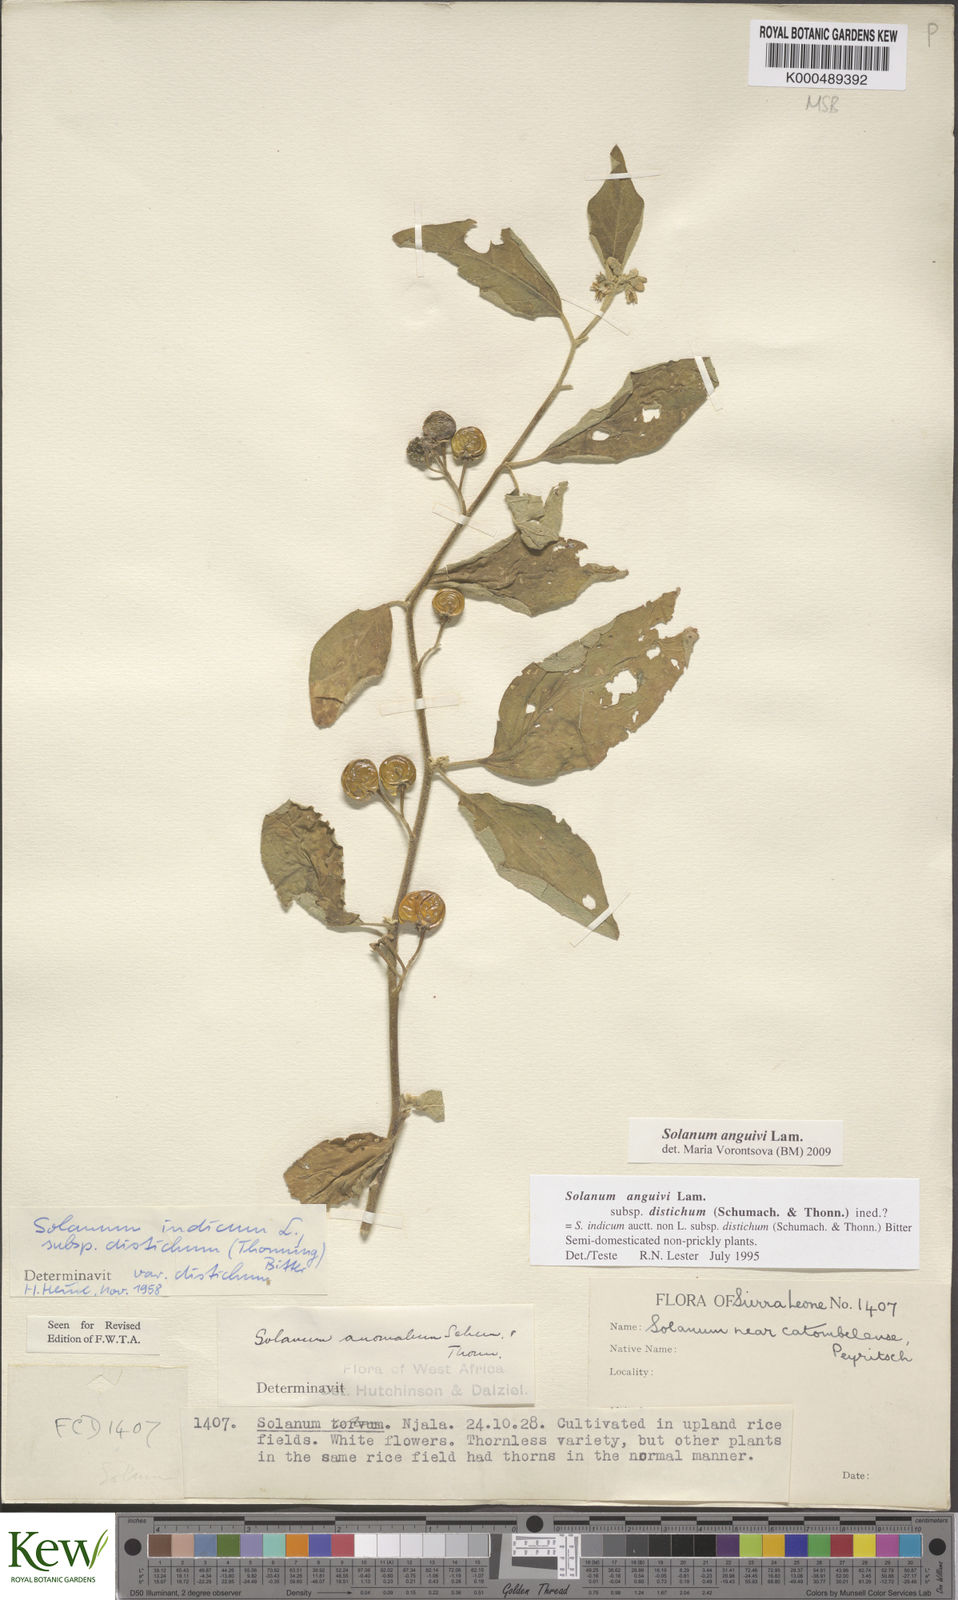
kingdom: Plantae
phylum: Tracheophyta
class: Magnoliopsida
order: Solanales
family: Solanaceae
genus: Solanum
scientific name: Solanum anguivi
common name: Forest bitterberry
